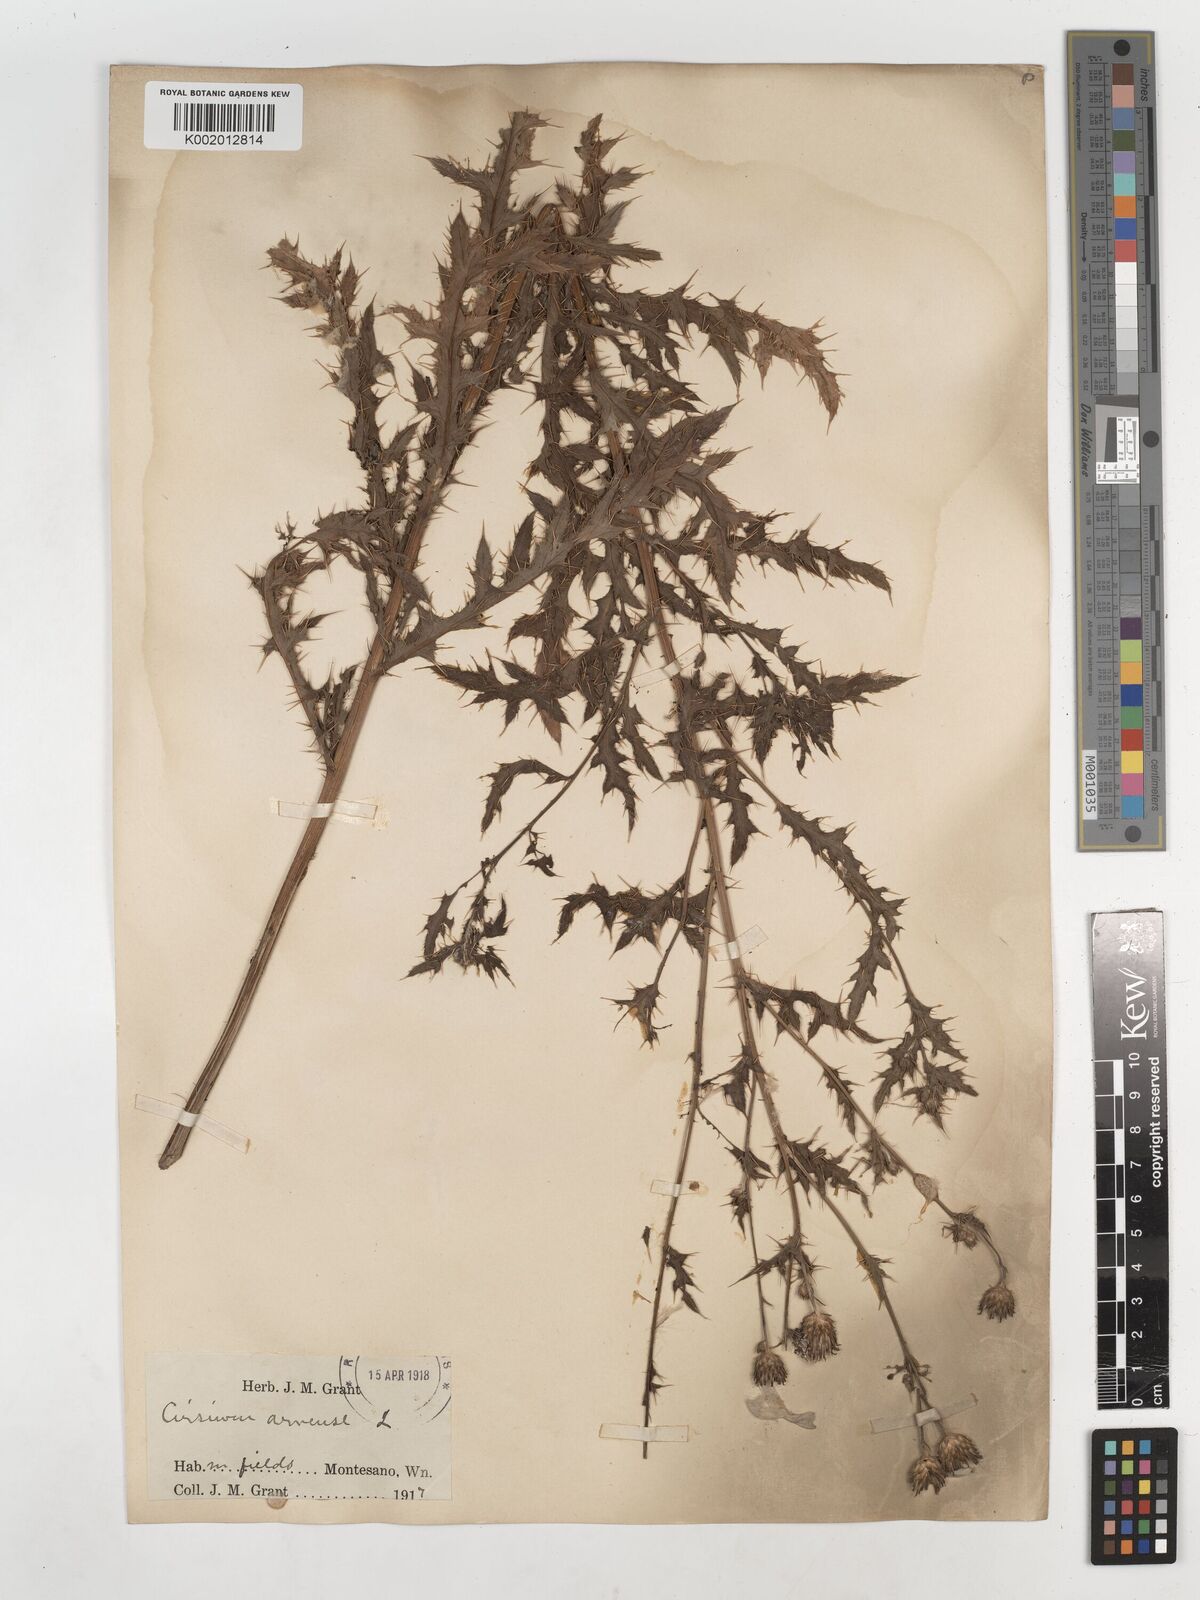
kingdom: Plantae
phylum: Tracheophyta
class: Magnoliopsida
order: Asterales
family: Asteraceae
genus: Cirsium
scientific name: Cirsium
